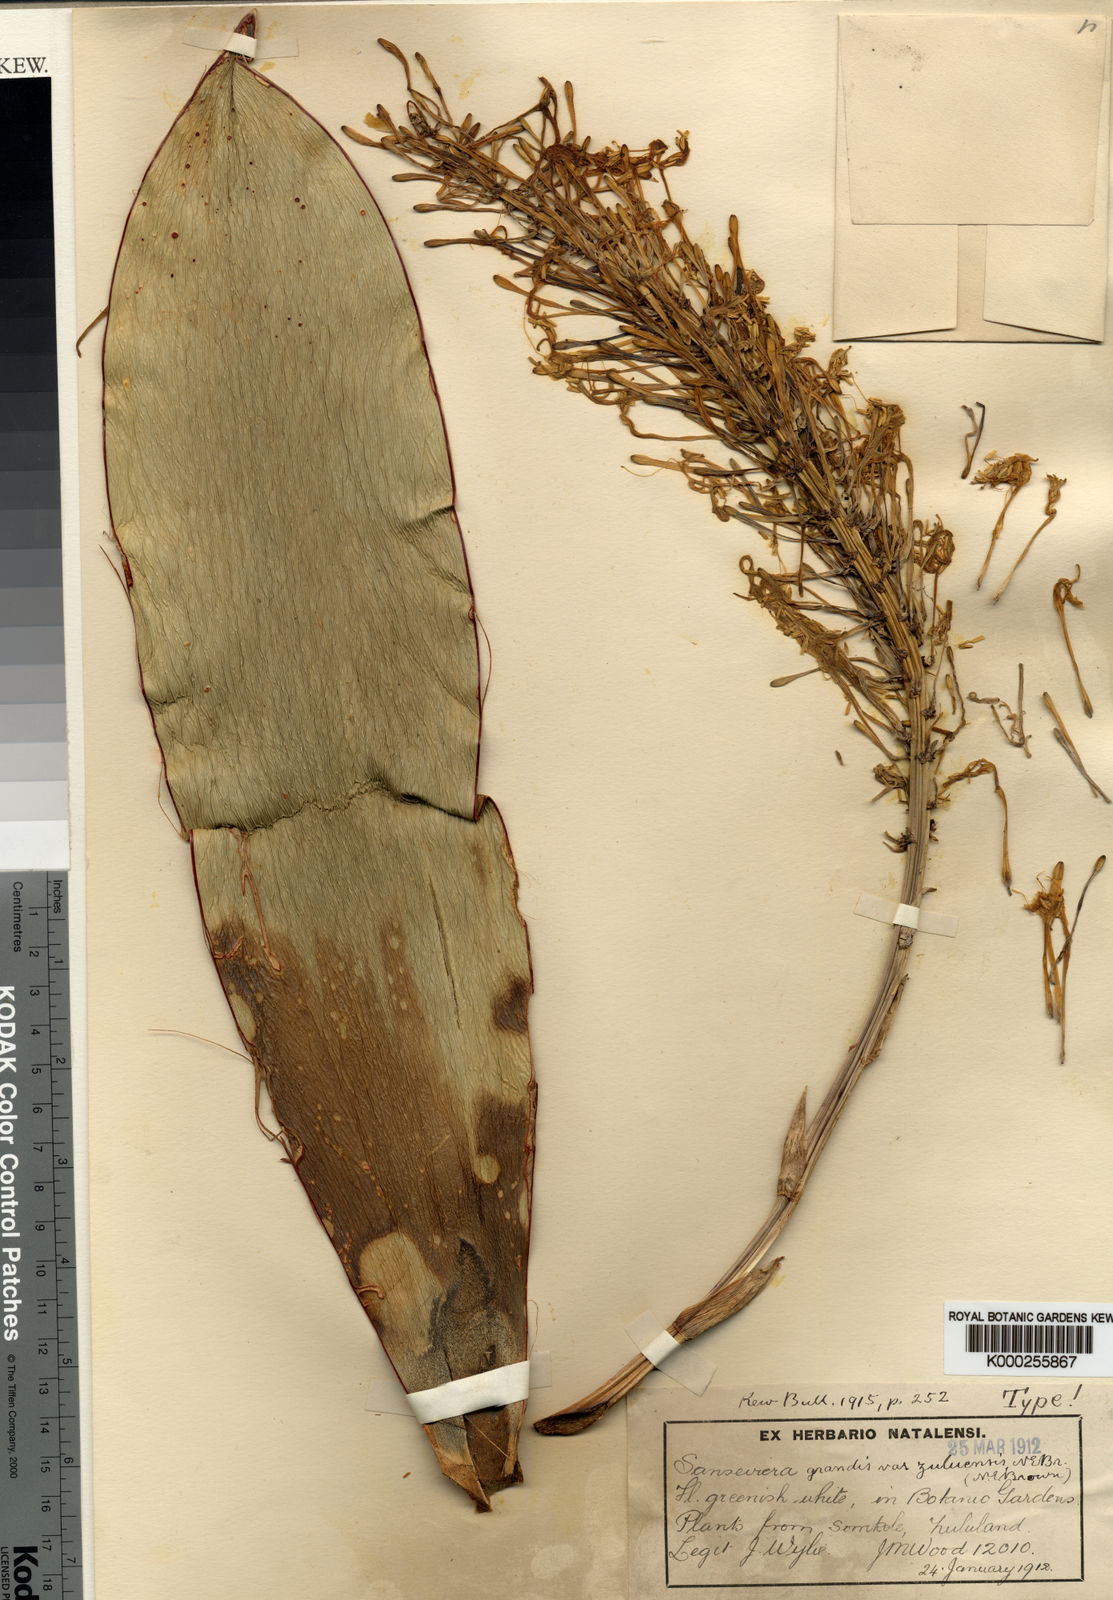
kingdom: Plantae
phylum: Tracheophyta
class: Liliopsida
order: Asparagales
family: Asparagaceae
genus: Dracaena
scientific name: Dracaena hyacinthoides
